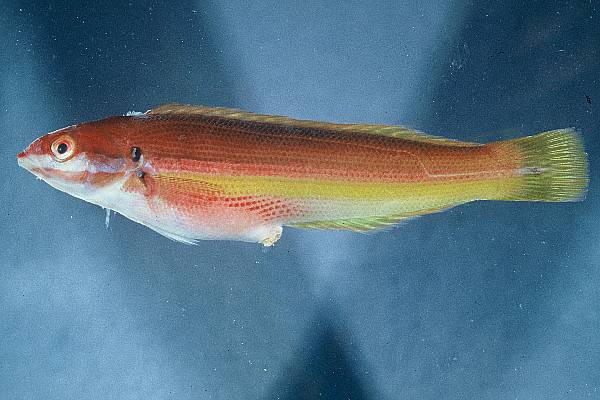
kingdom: Animalia
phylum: Chordata
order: Perciformes
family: Labridae
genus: Coris
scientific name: Coris julis
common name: Rainbow wrasse
